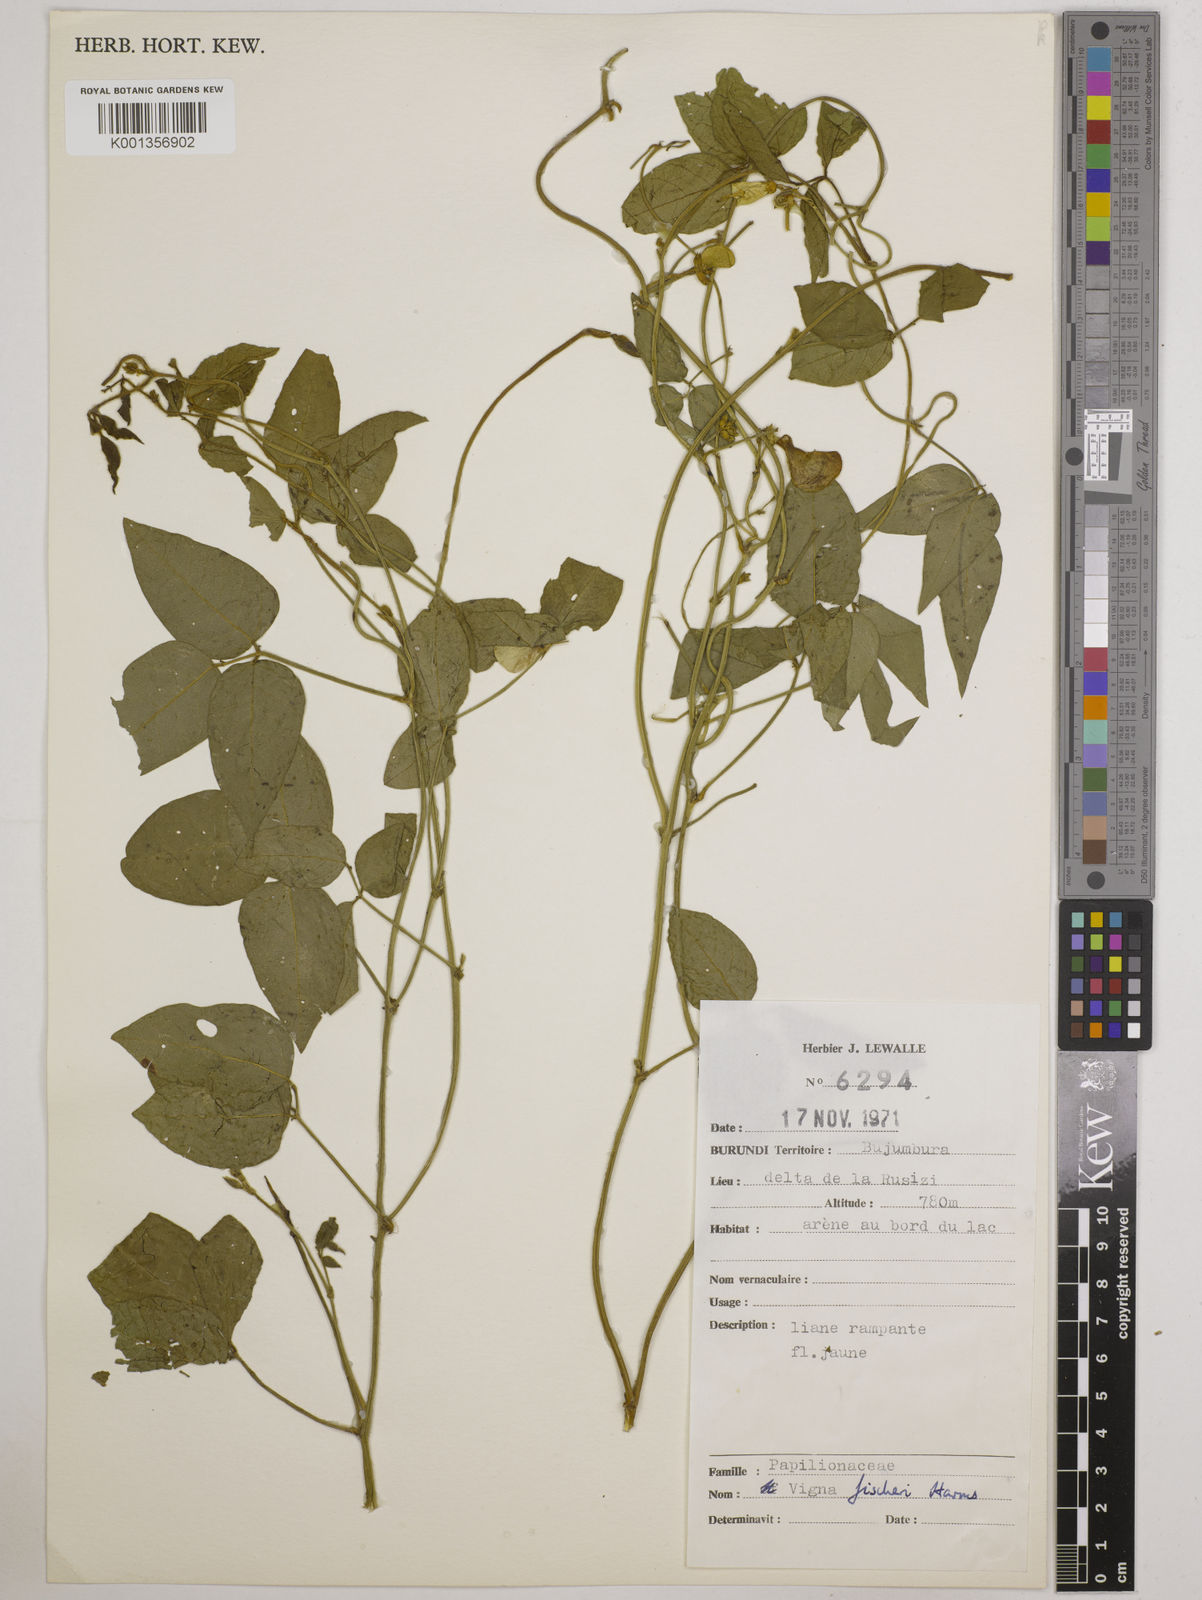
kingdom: Plantae
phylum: Tracheophyta
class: Magnoliopsida
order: Fabales
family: Fabaceae
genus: Vigna
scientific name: Vigna fischeri
